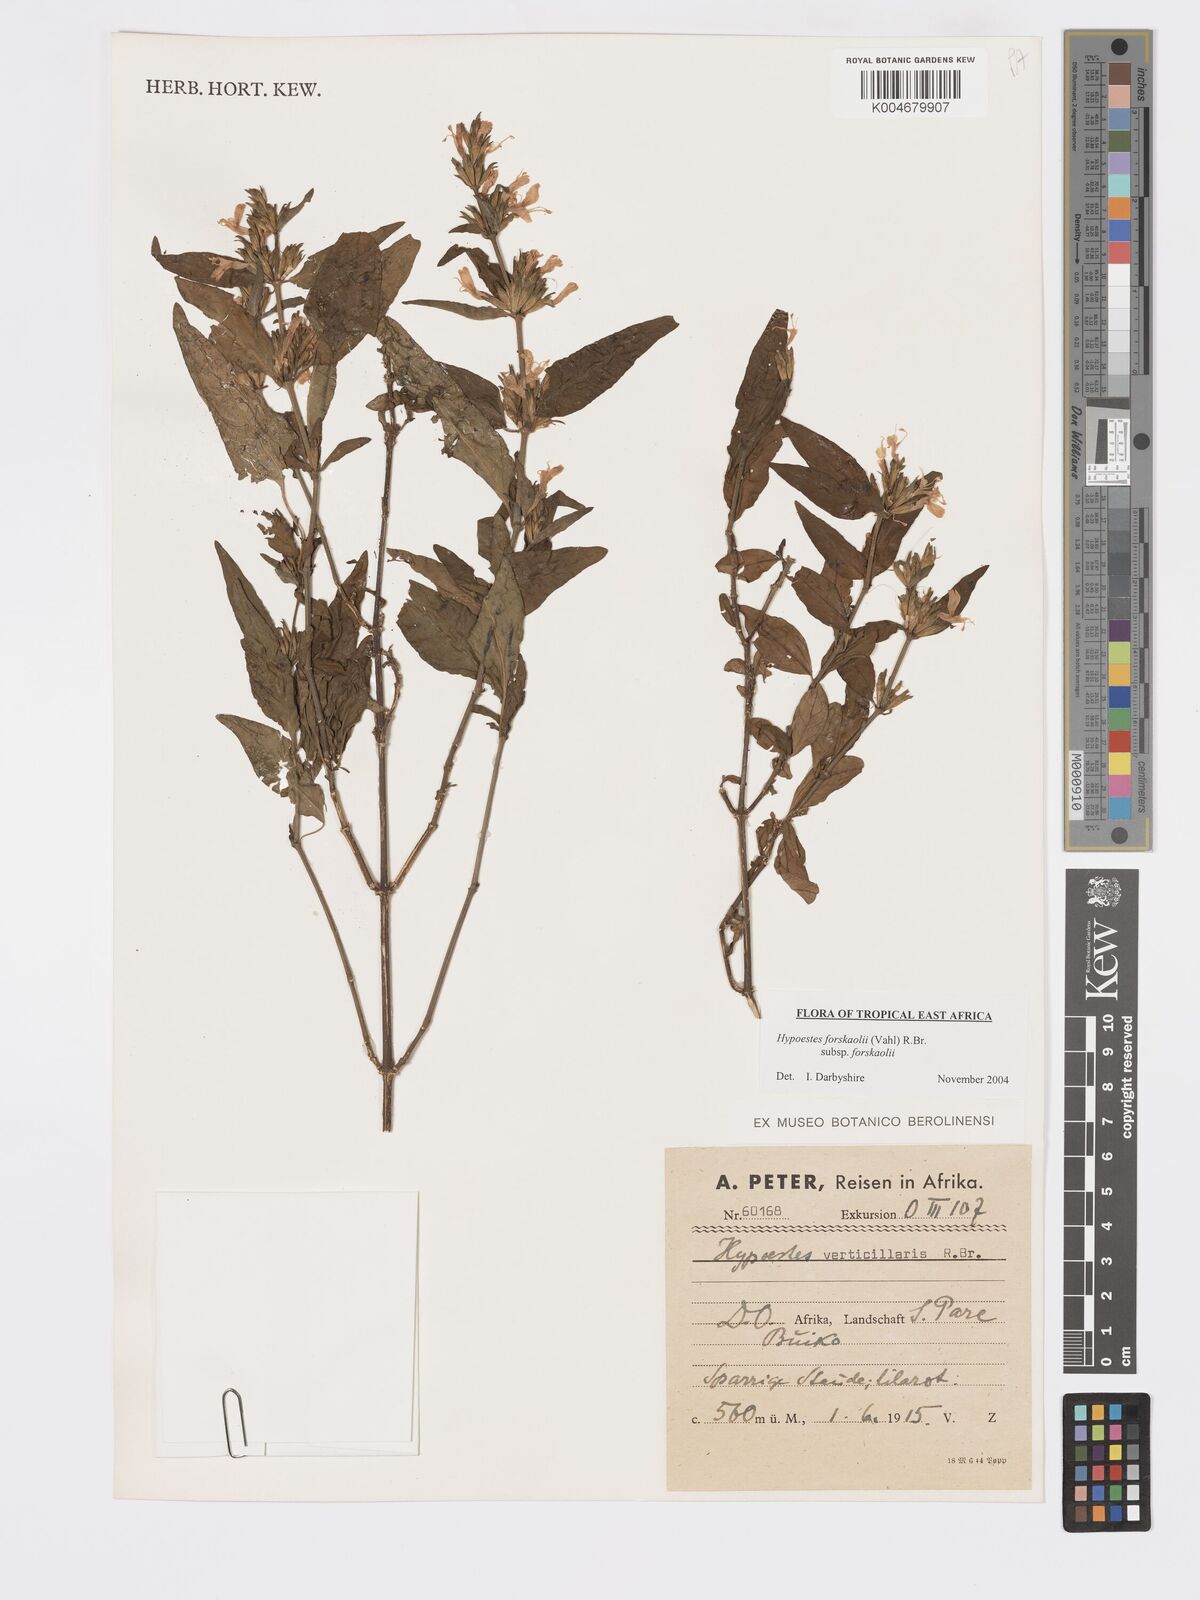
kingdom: Plantae
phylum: Tracheophyta
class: Magnoliopsida
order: Lamiales
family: Acanthaceae
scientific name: Acanthaceae
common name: Acanthaceae
